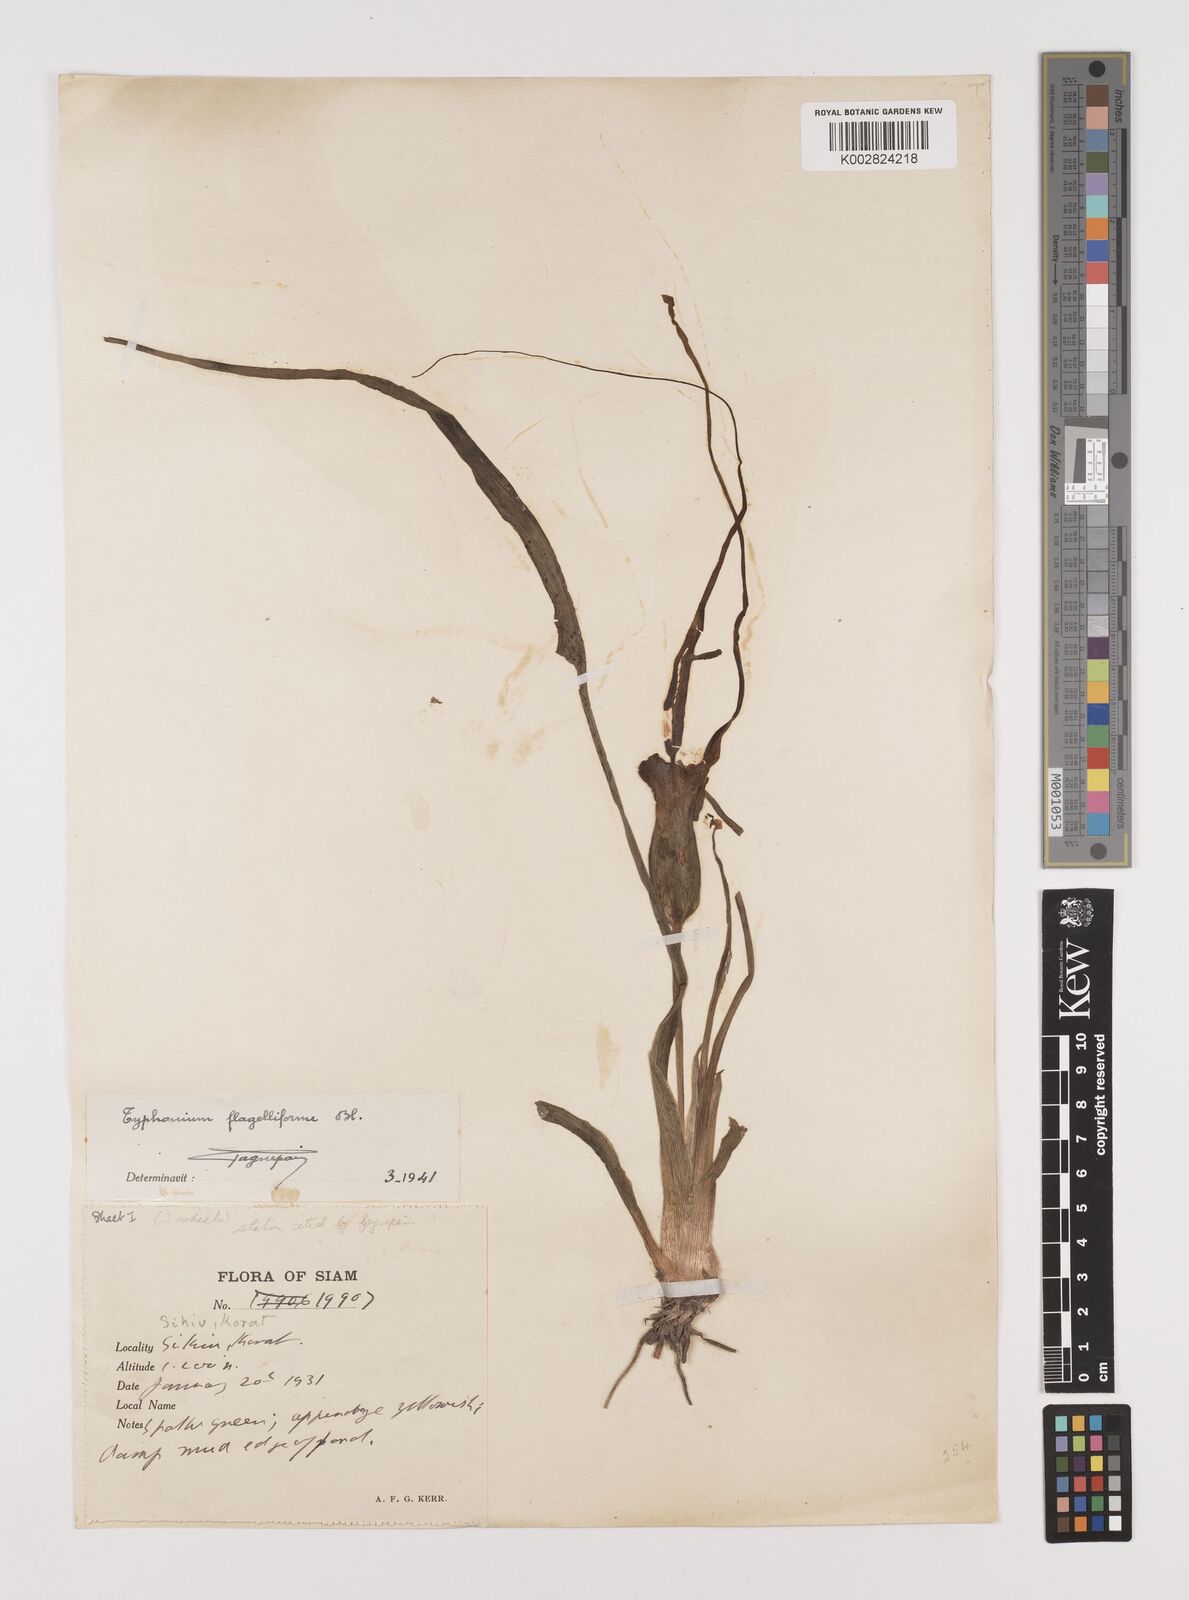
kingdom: Plantae
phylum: Tracheophyta
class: Liliopsida
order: Alismatales
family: Araceae
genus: Typhonium
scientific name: Typhonium flagelliforme
